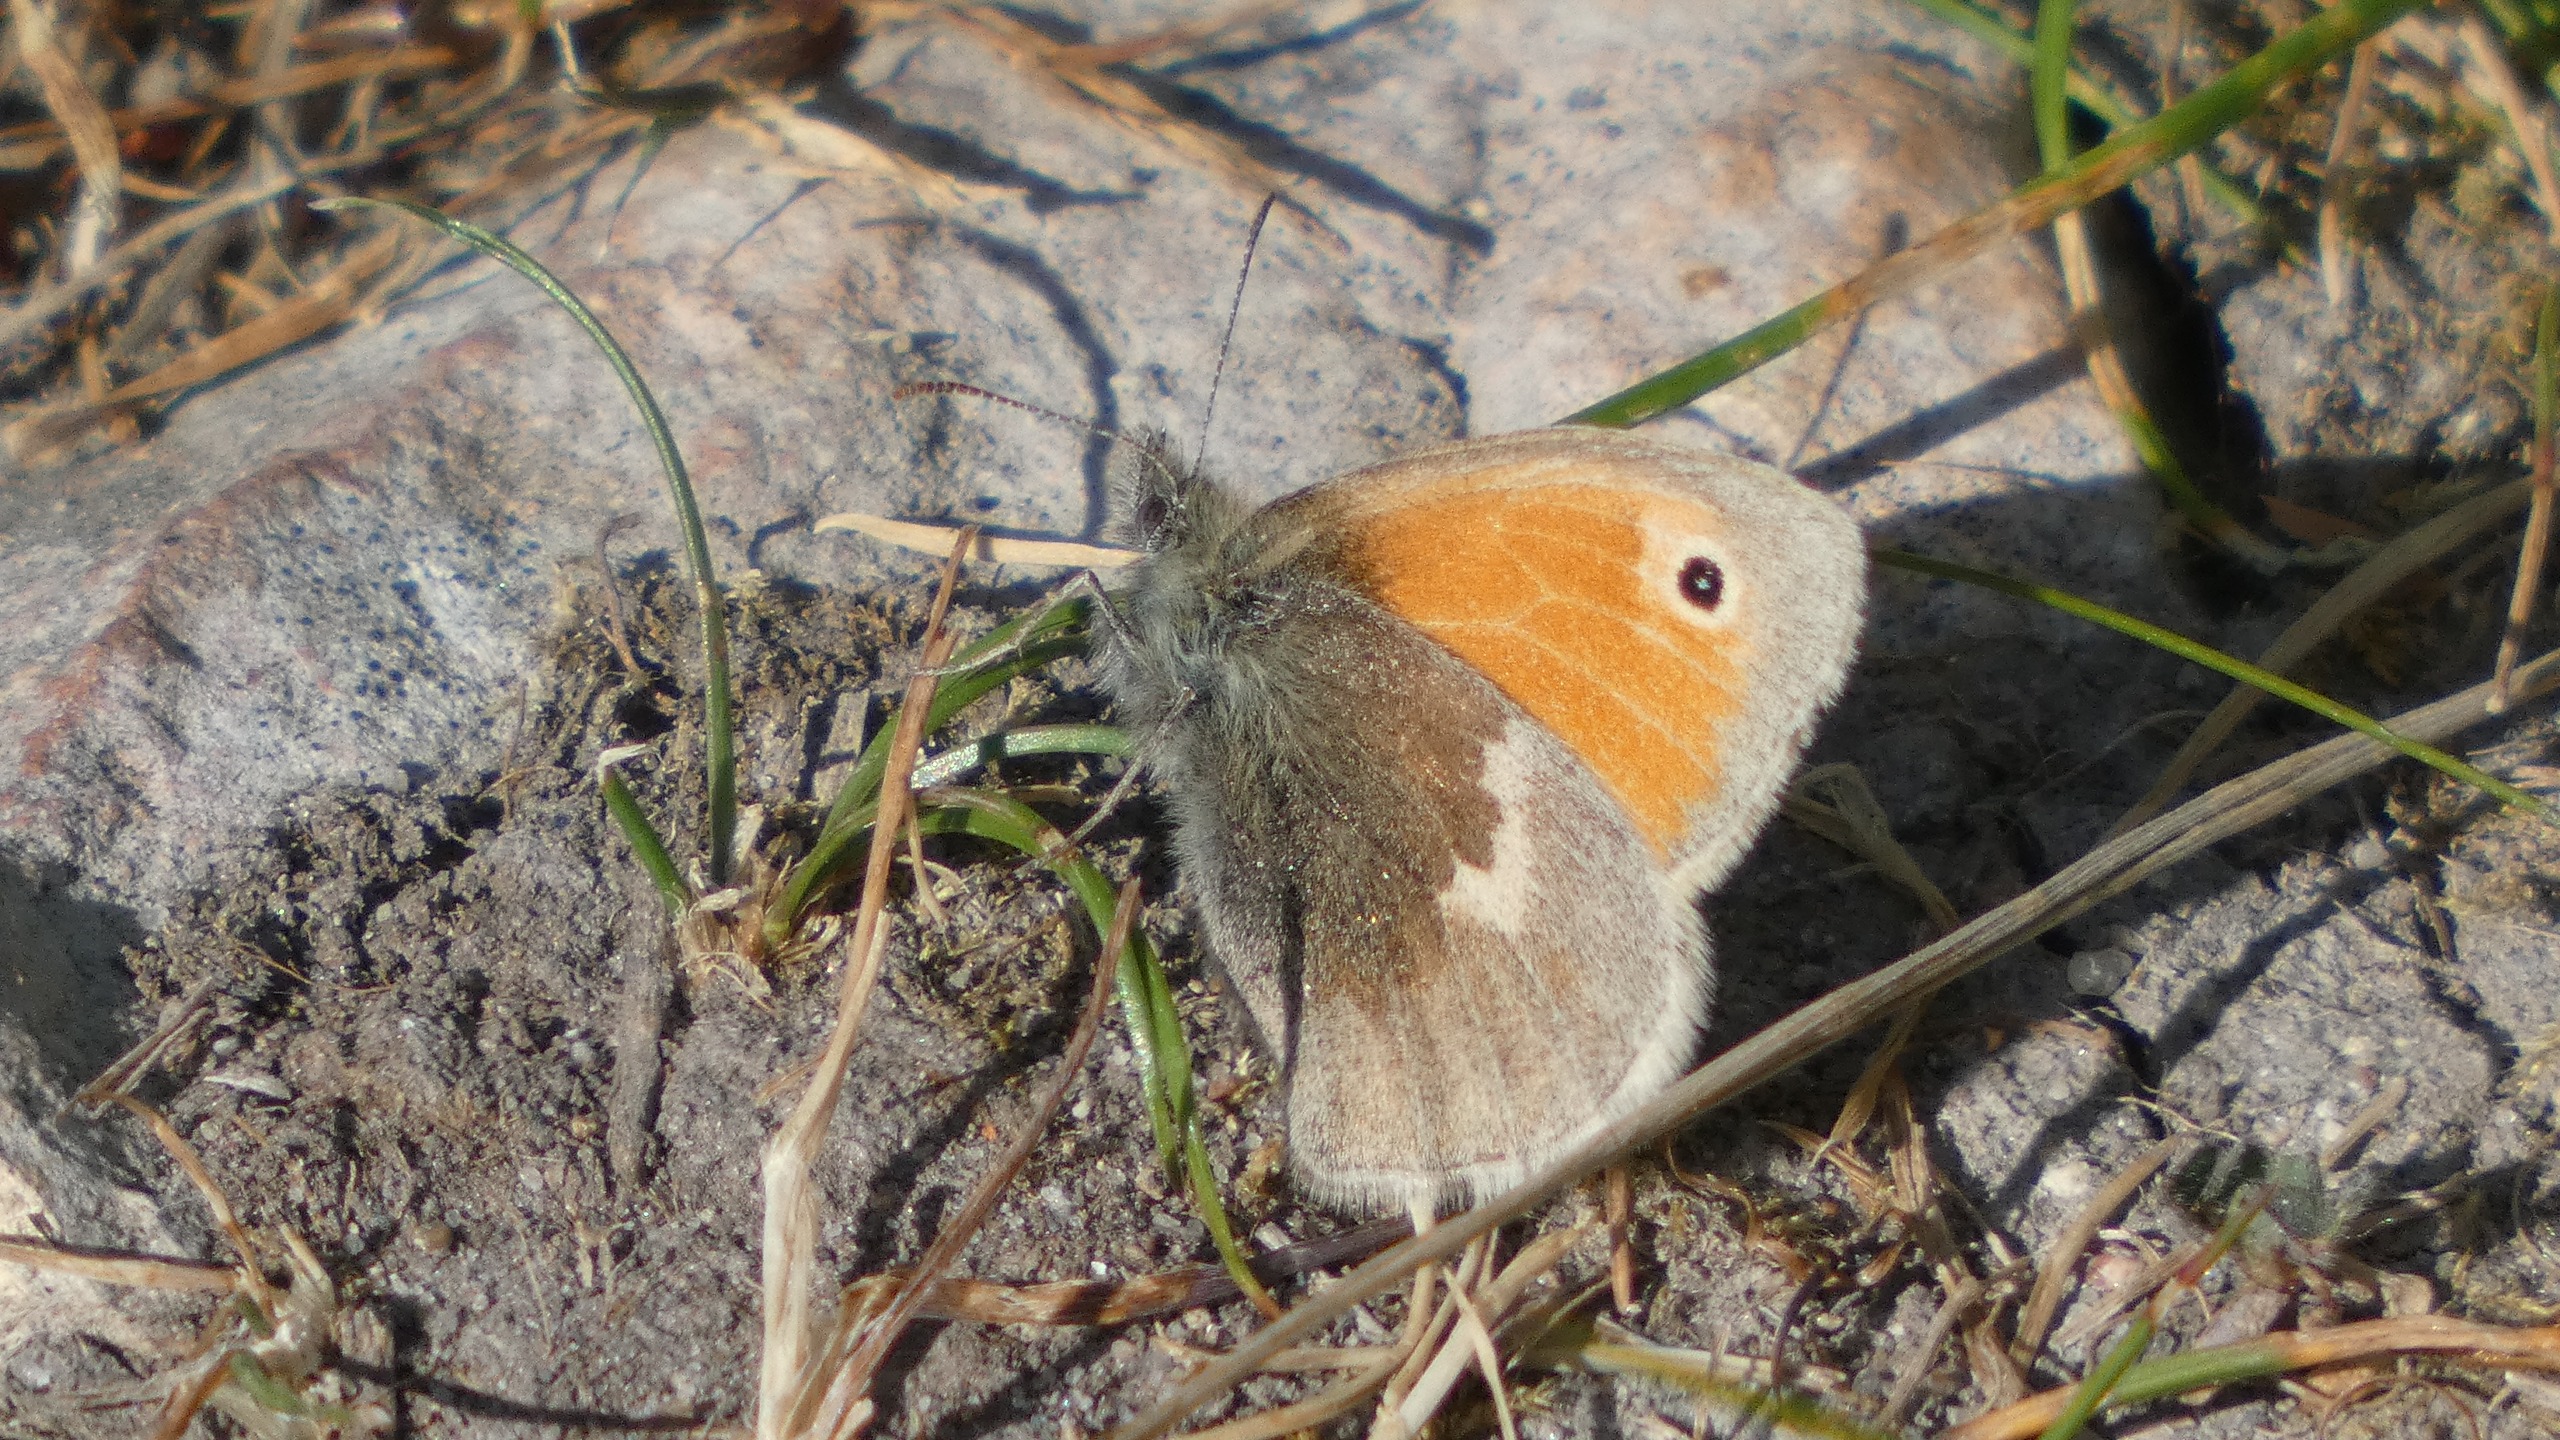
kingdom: Animalia
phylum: Arthropoda
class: Insecta
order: Lepidoptera
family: Nymphalidae
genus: Coenonympha
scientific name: Coenonympha pamphilus
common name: Okkergul randøje
